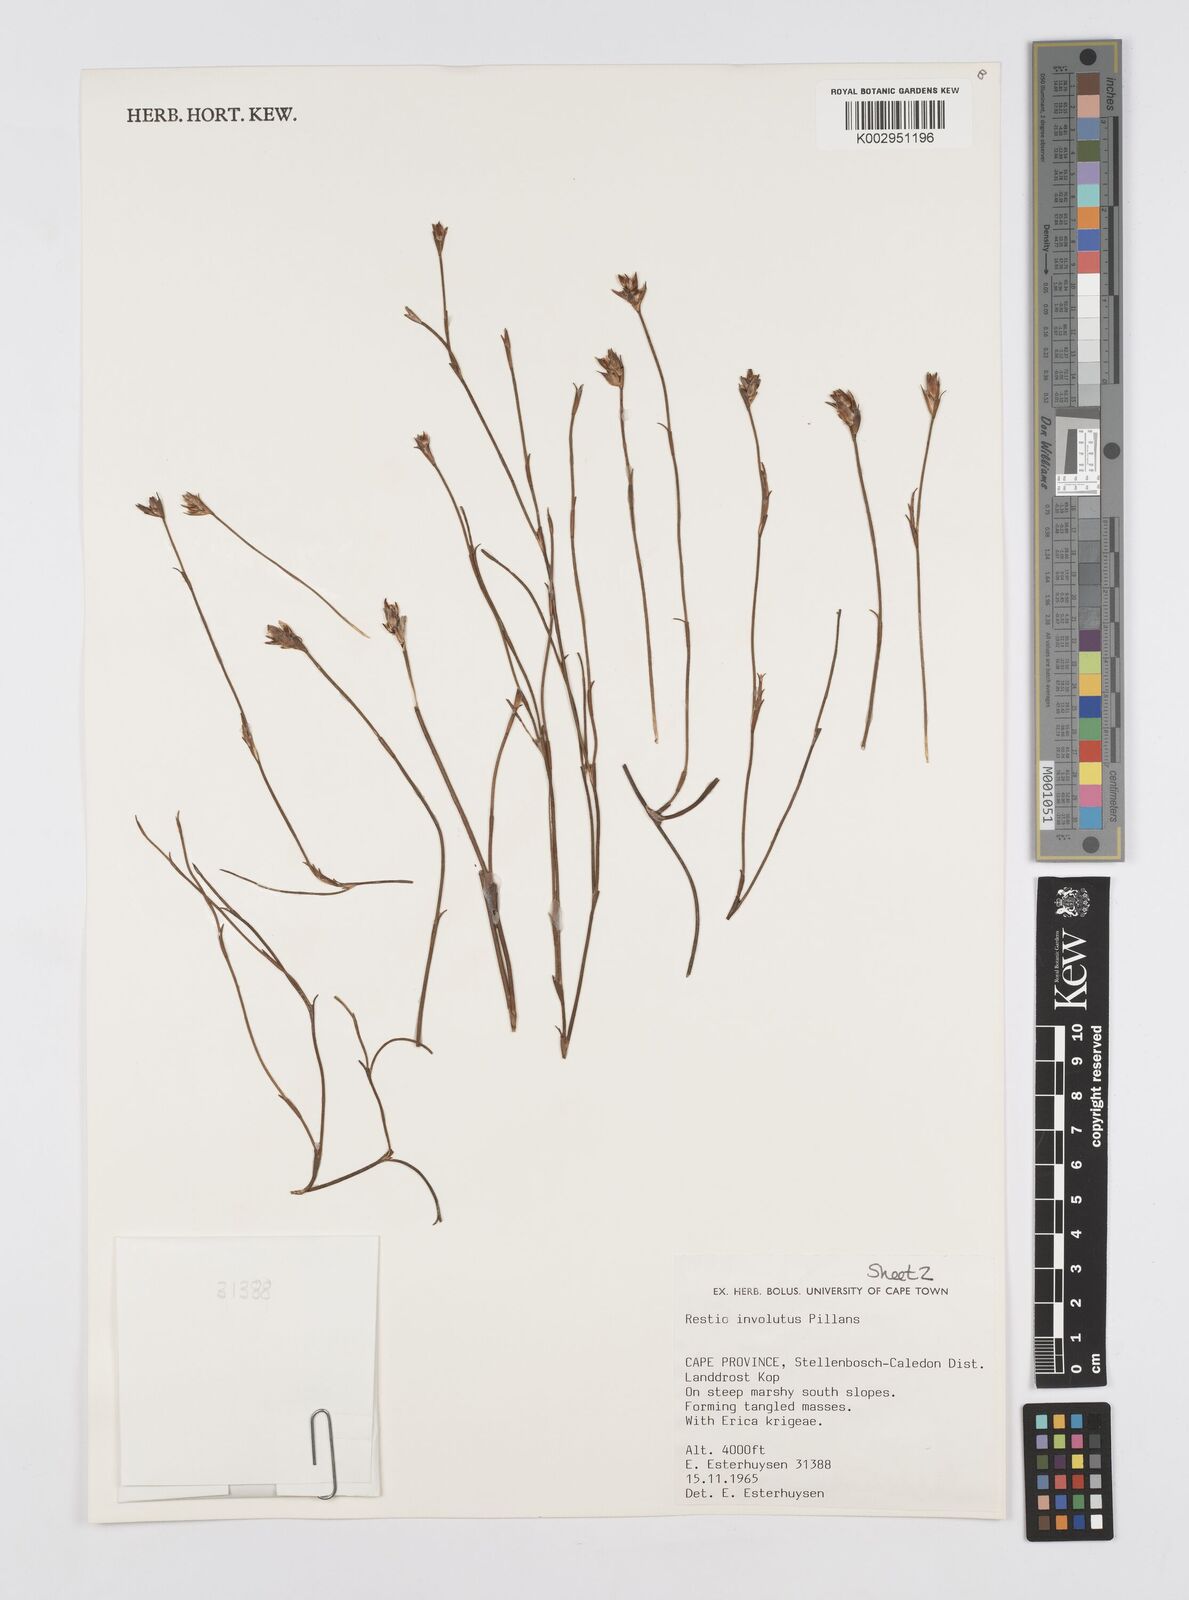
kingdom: Plantae
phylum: Tracheophyta
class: Liliopsida
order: Poales
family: Restionaceae
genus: Restio
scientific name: Restio involutus
